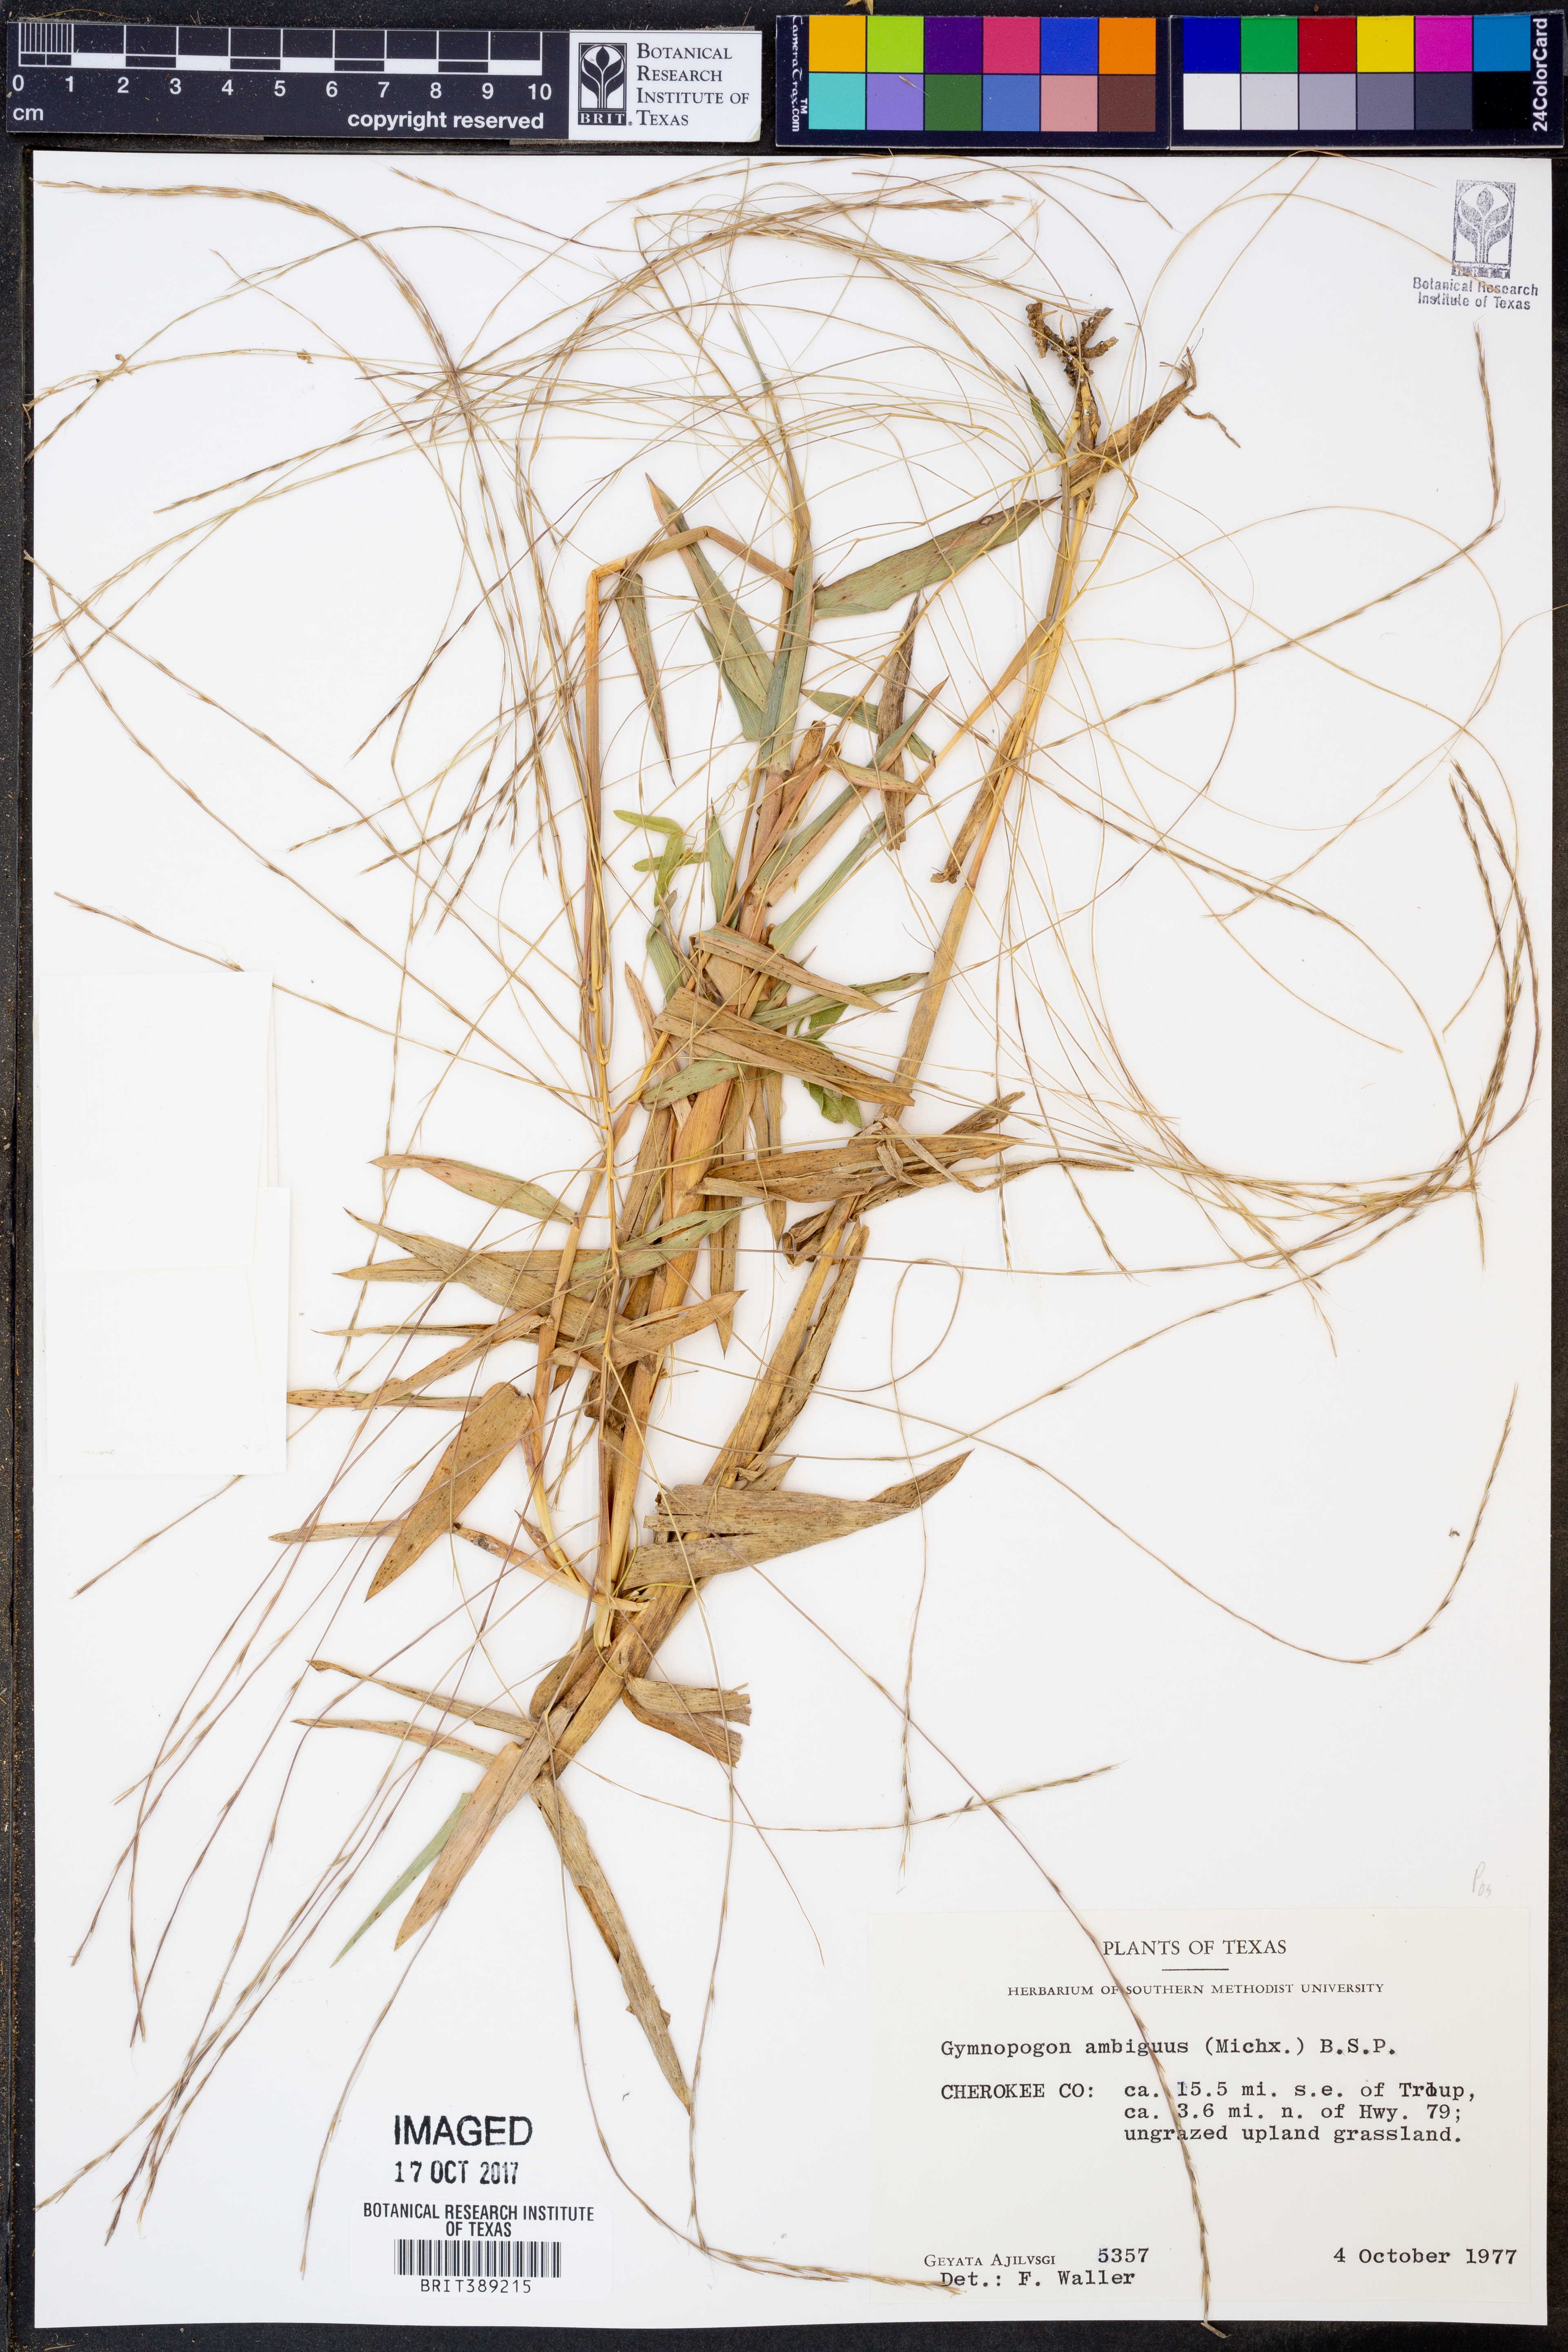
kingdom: Plantae
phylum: Tracheophyta
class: Liliopsida
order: Poales
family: Poaceae
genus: Gymnopogon
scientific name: Gymnopogon ambiguus
